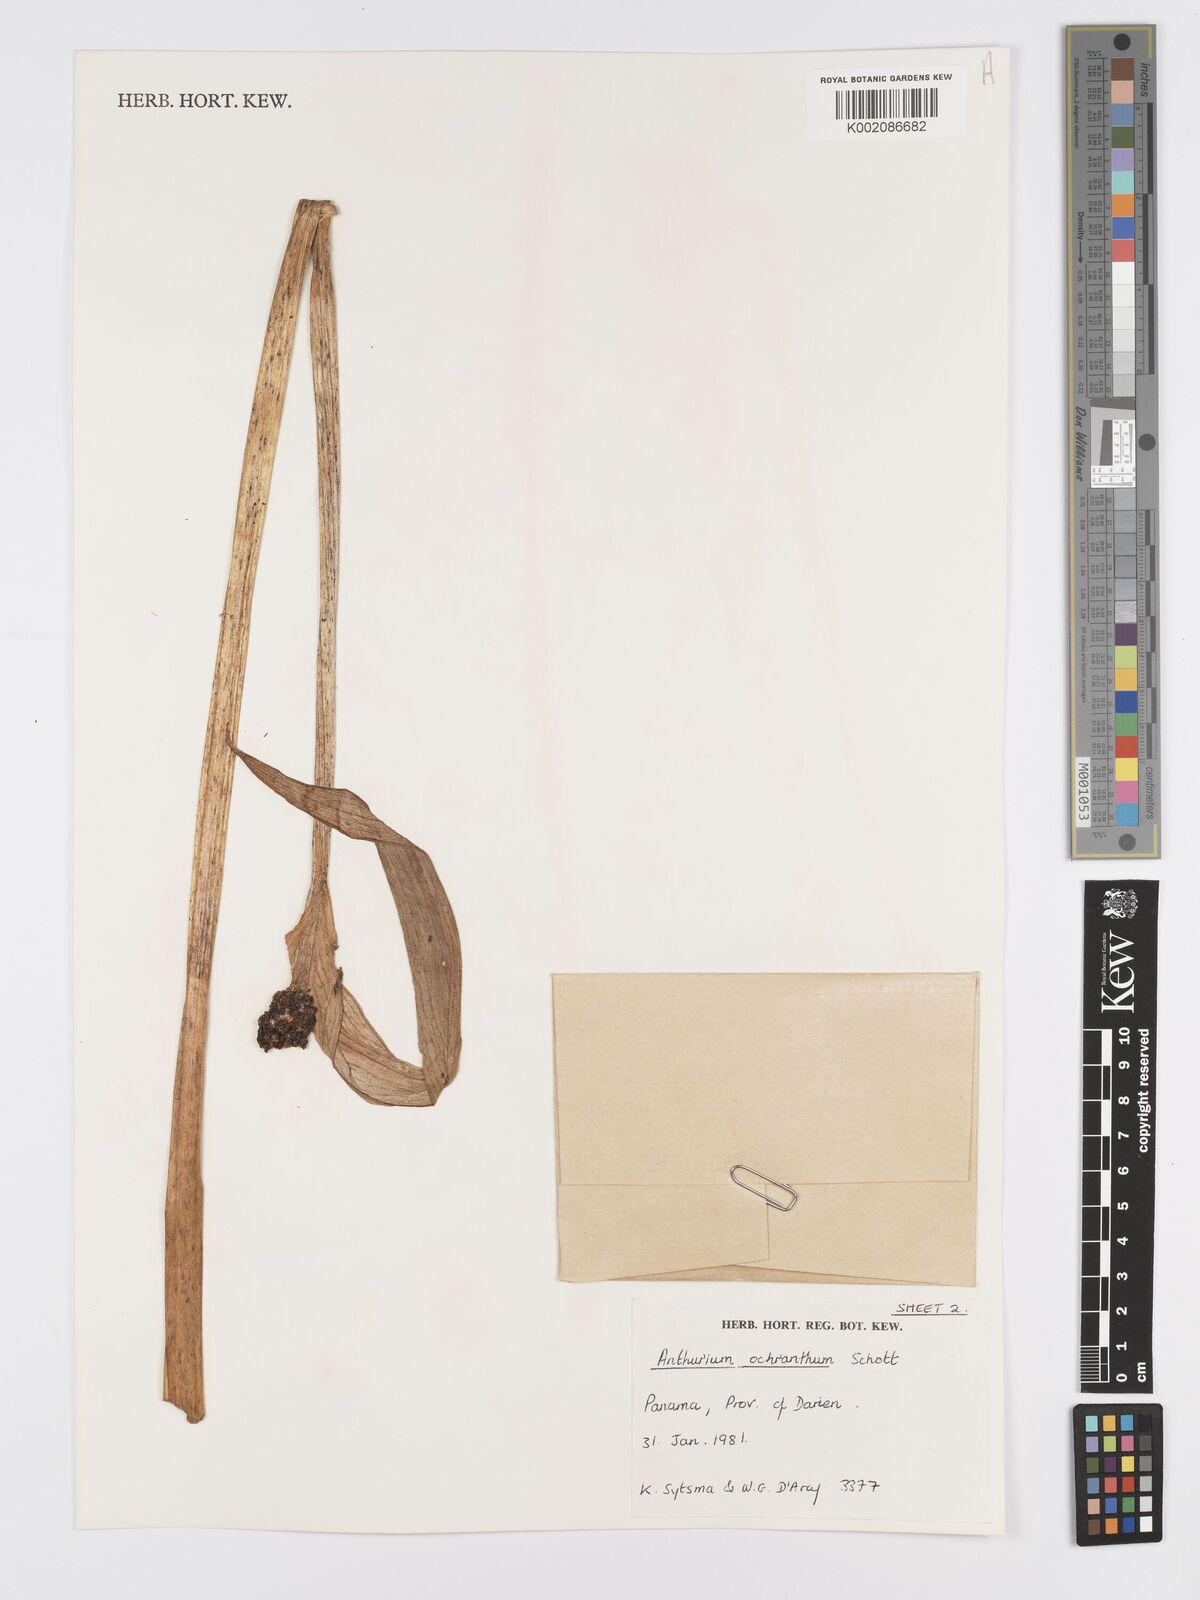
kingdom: Plantae
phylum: Tracheophyta
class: Liliopsida
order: Alismatales
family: Araceae
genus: Anthurium
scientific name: Anthurium ochranthum
